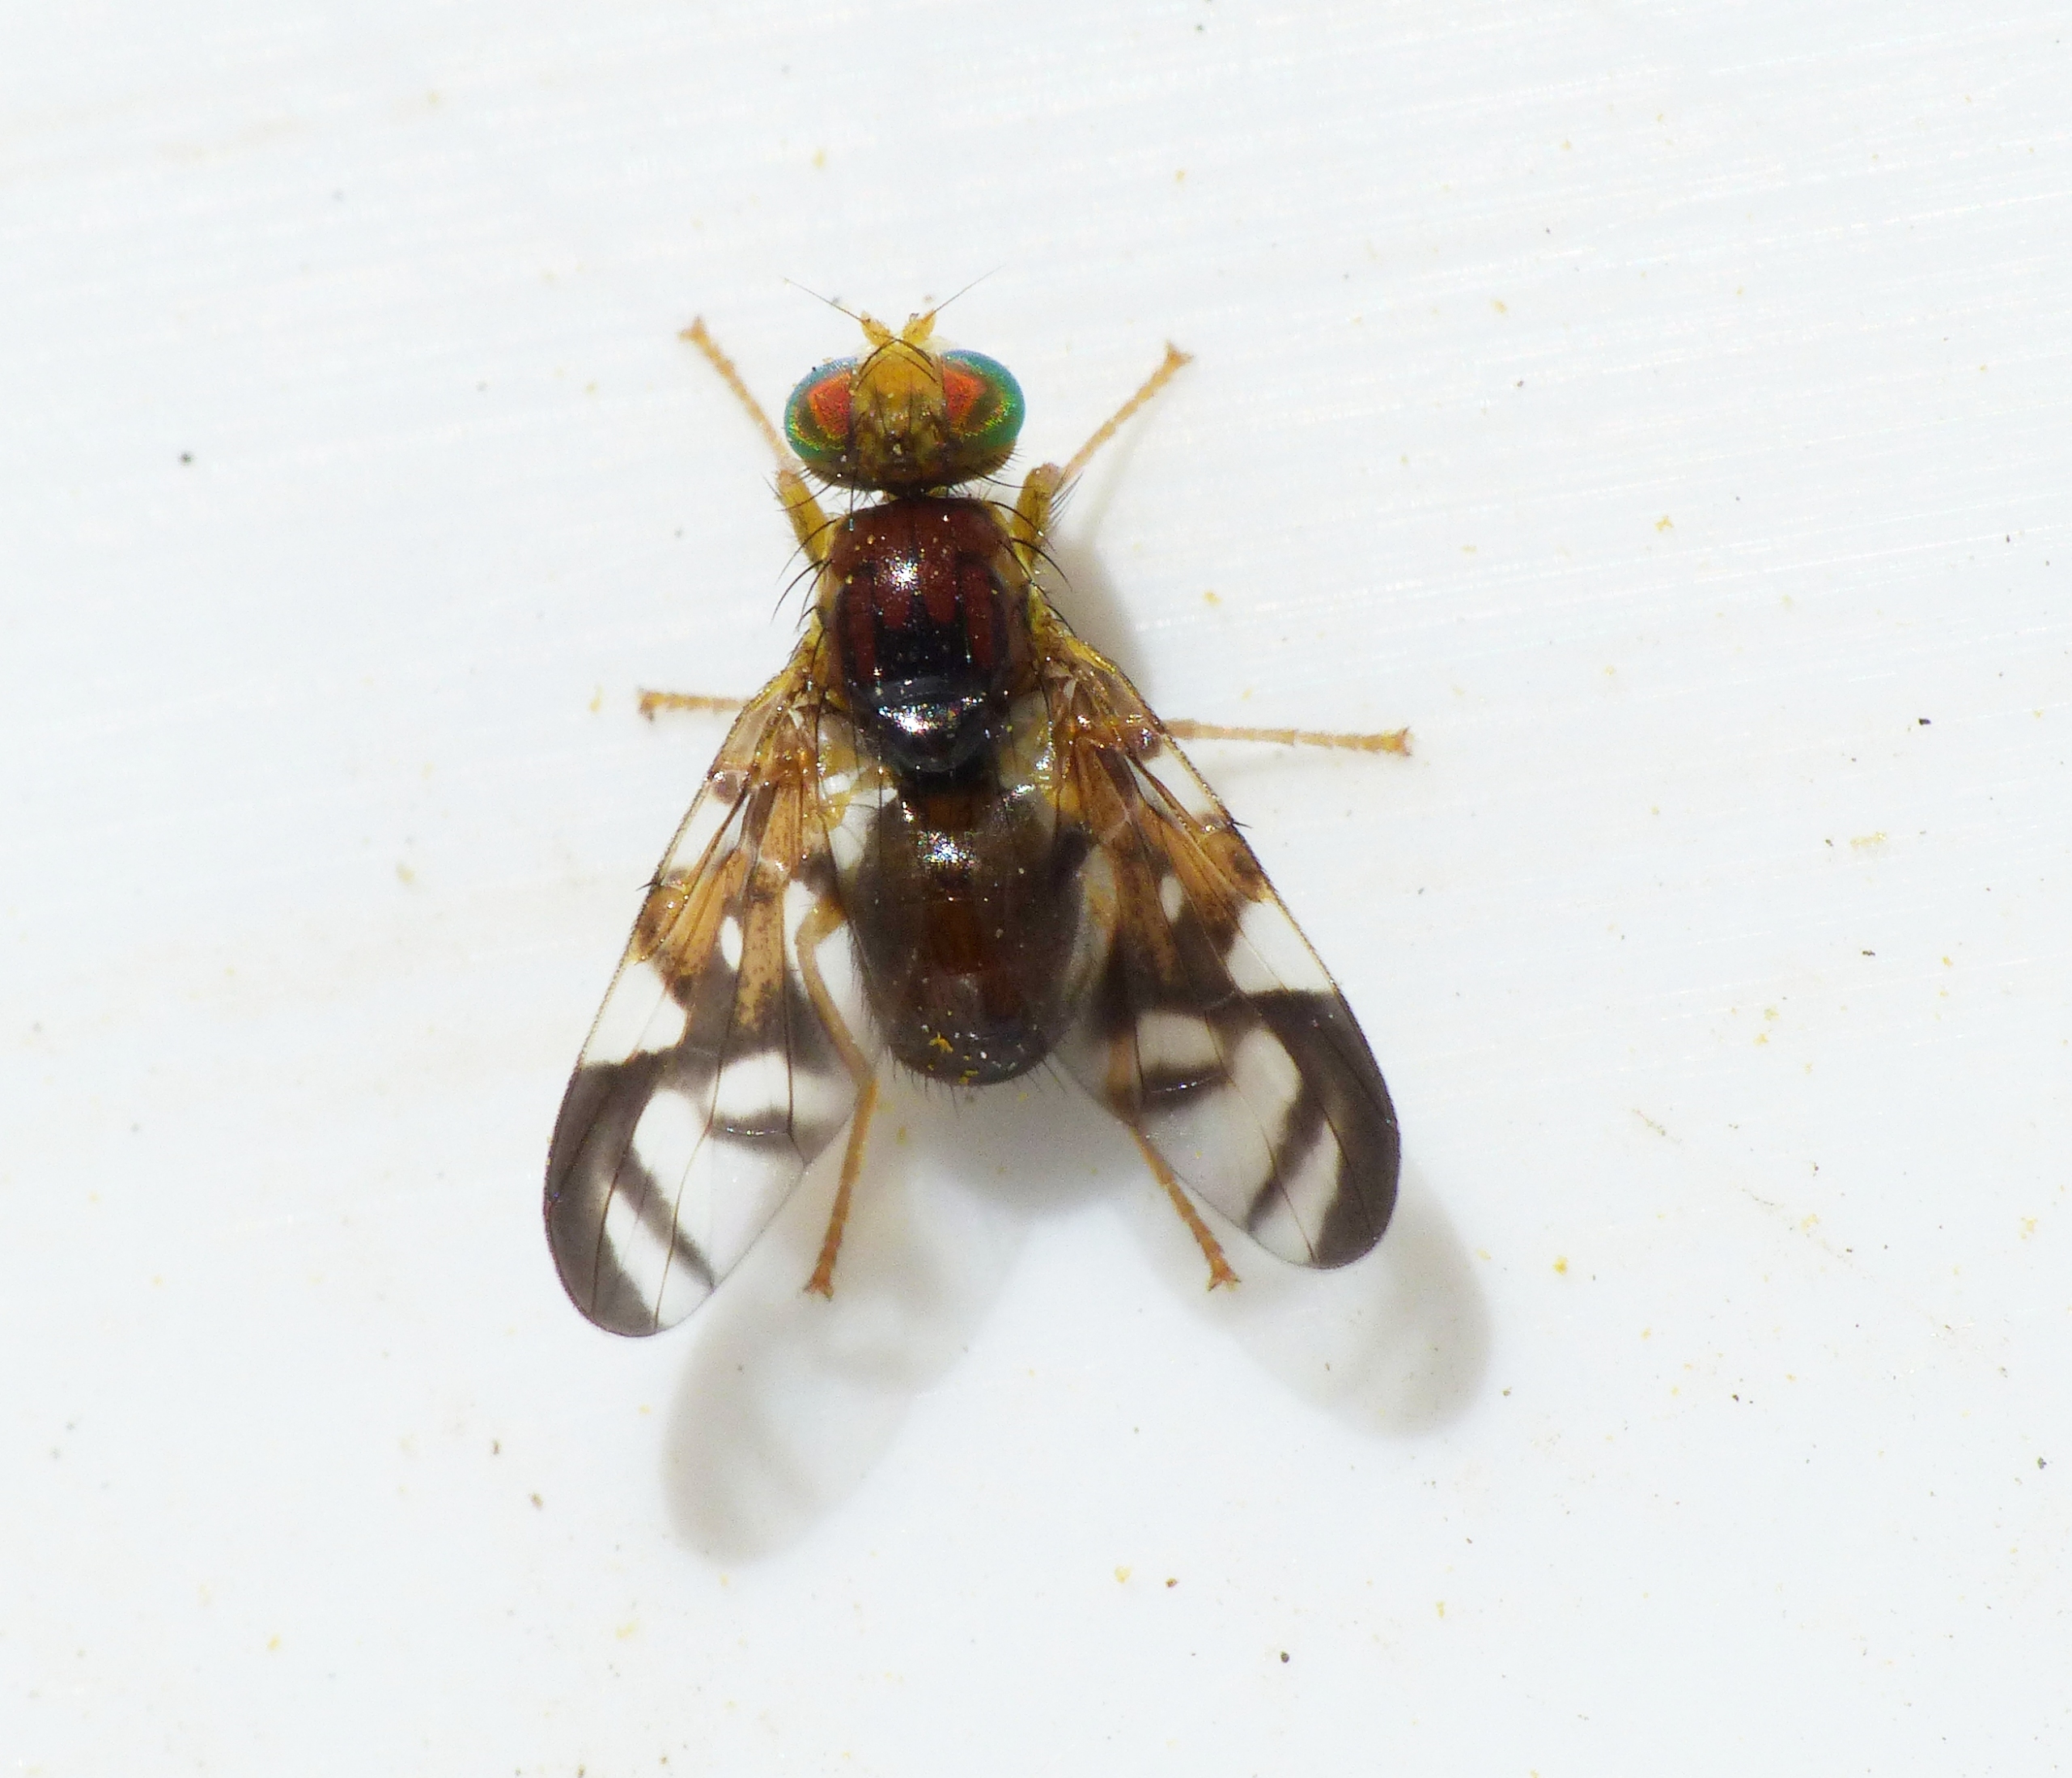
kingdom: Animalia
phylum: Arthropoda
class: Insecta
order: Diptera
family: Tephritidae
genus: Euleia
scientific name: Euleia heraclei
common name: Selleriflue
